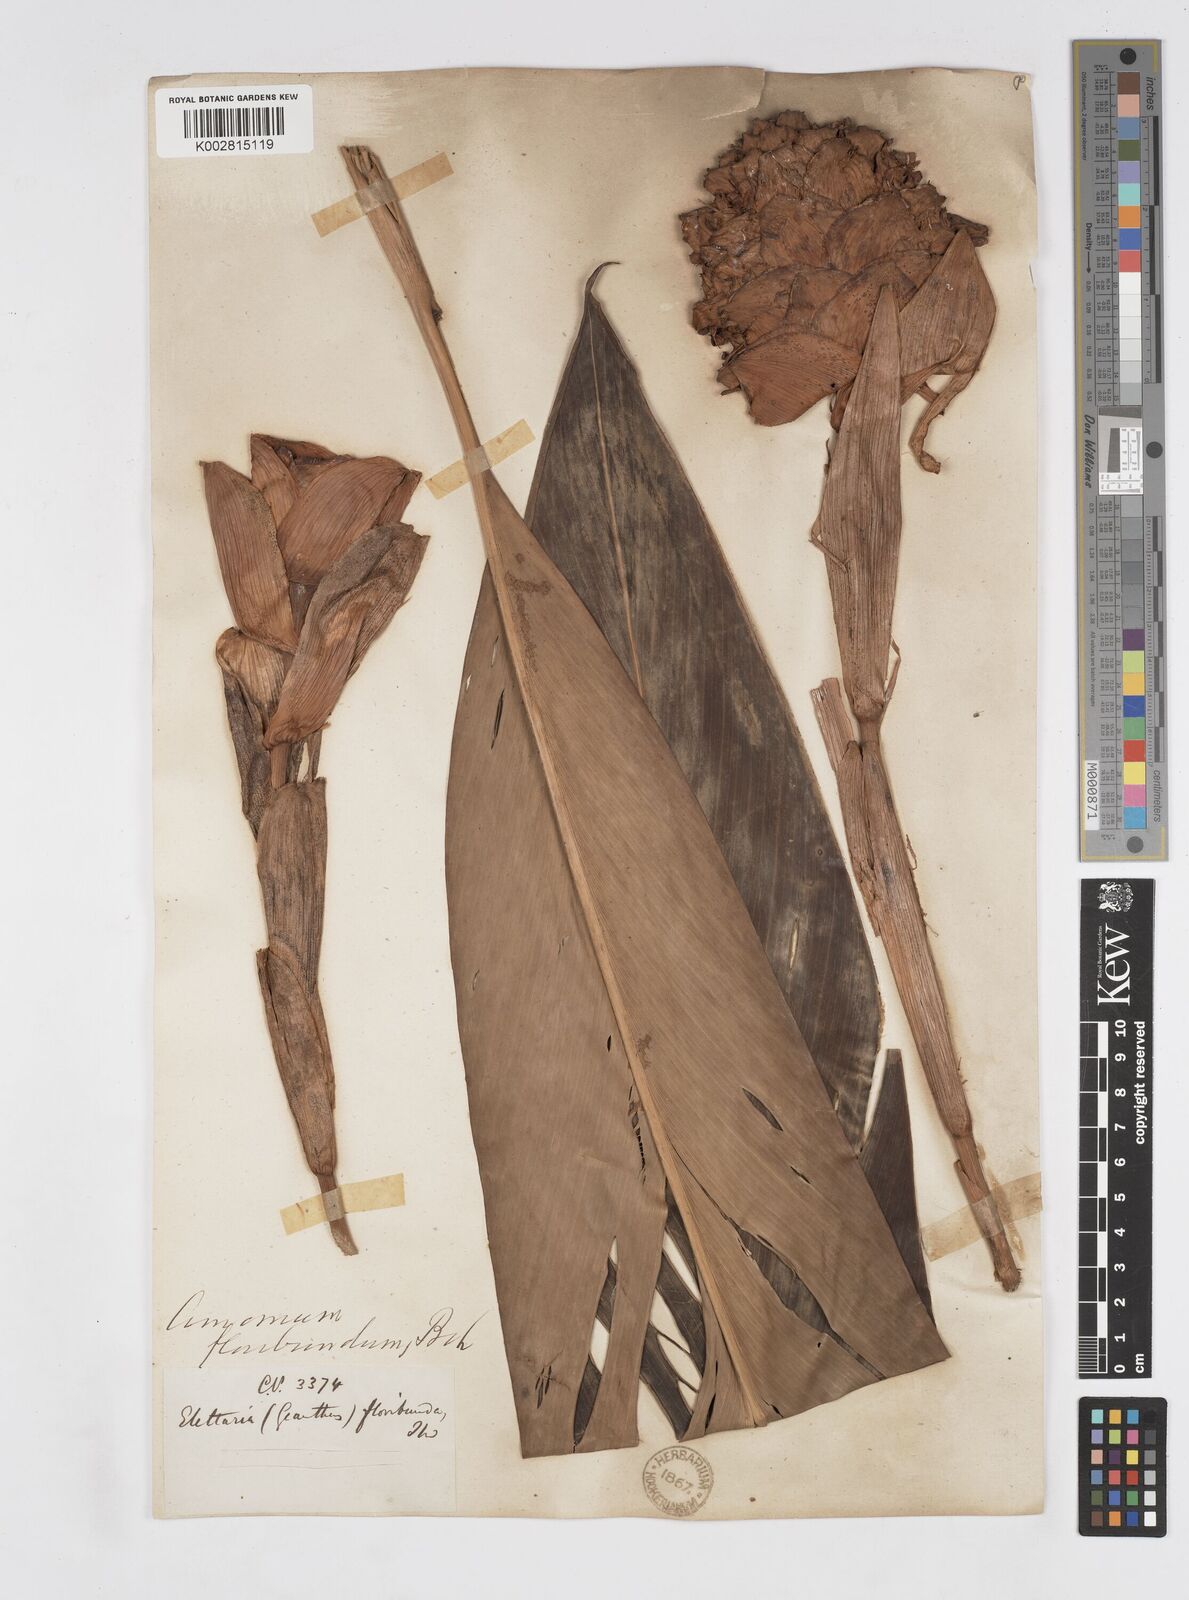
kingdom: Plantae
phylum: Tracheophyta
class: Liliopsida
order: Zingiberales
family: Zingiberaceae
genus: Alpinia
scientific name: Alpinia abundiflora
